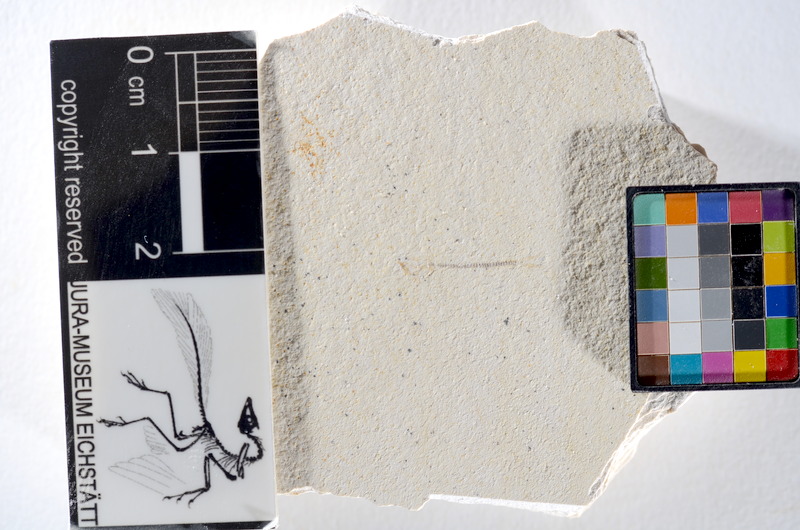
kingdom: Animalia
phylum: Chordata
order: Salmoniformes
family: Orthogonikleithridae
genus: Orthogonikleithrus
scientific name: Orthogonikleithrus hoelli
